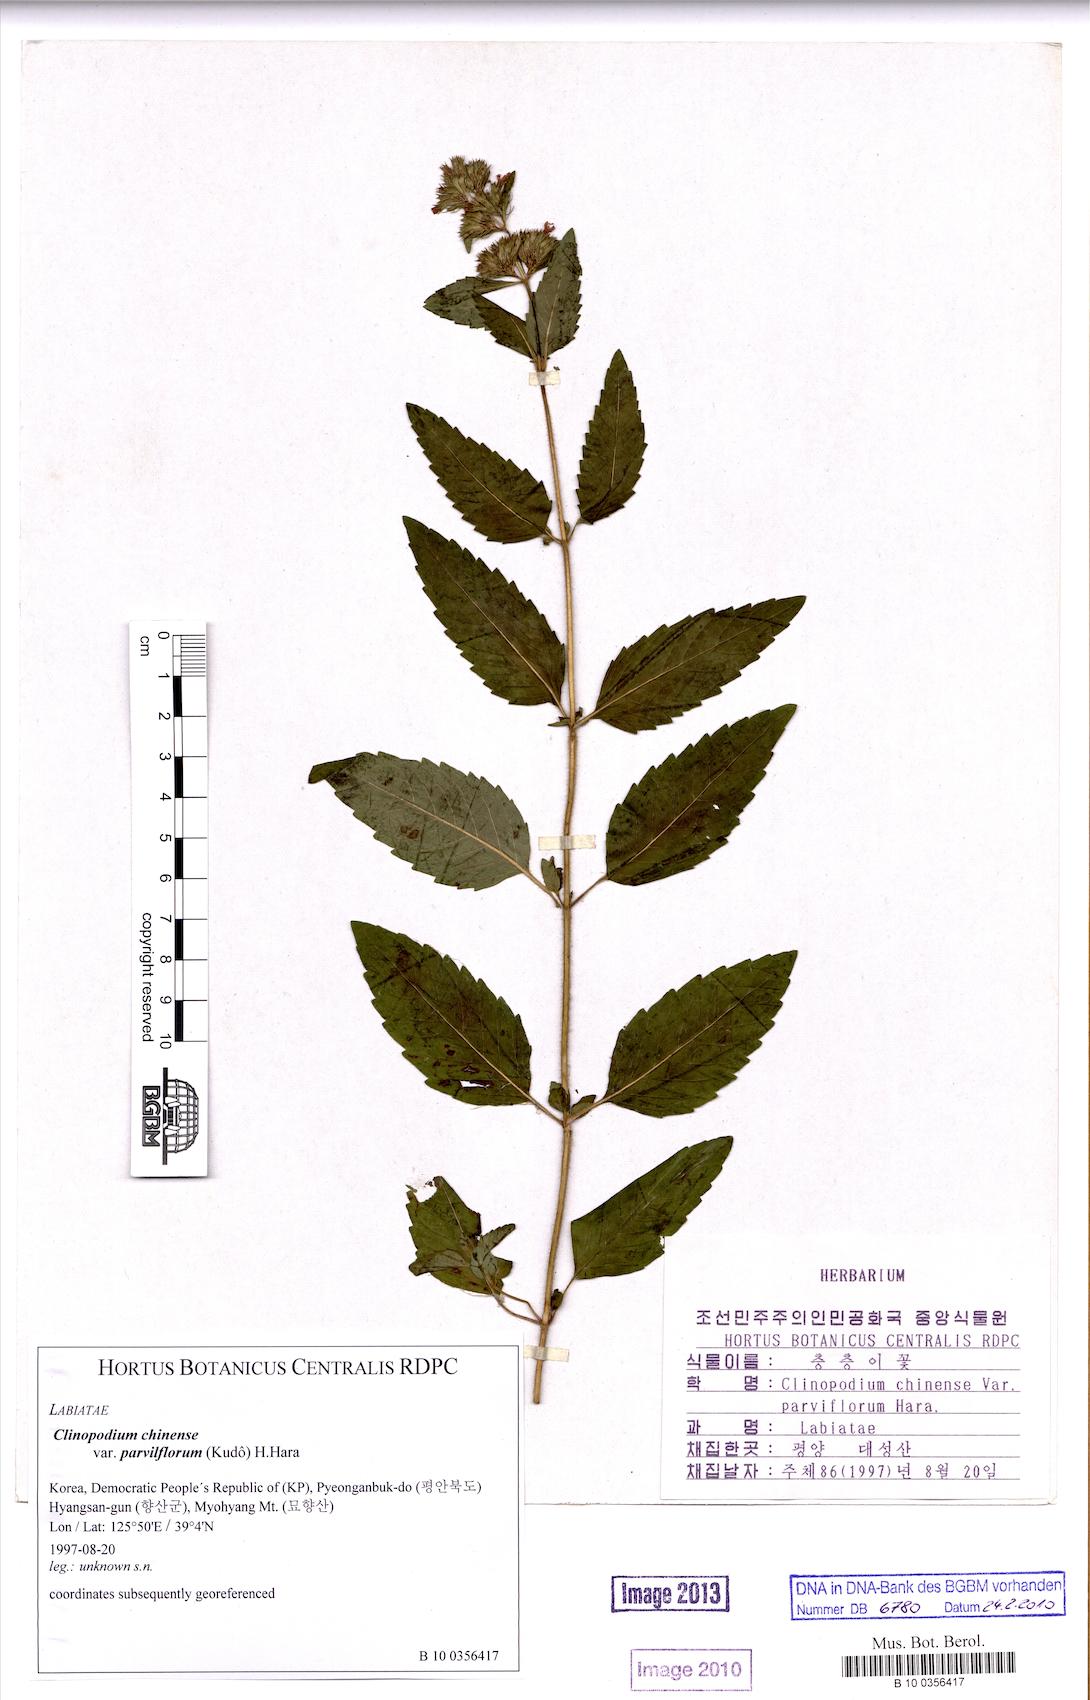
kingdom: Plantae
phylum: Tracheophyta
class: Magnoliopsida
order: Lamiales
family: Lamiaceae
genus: Clinopodium
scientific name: Clinopodium chinense
